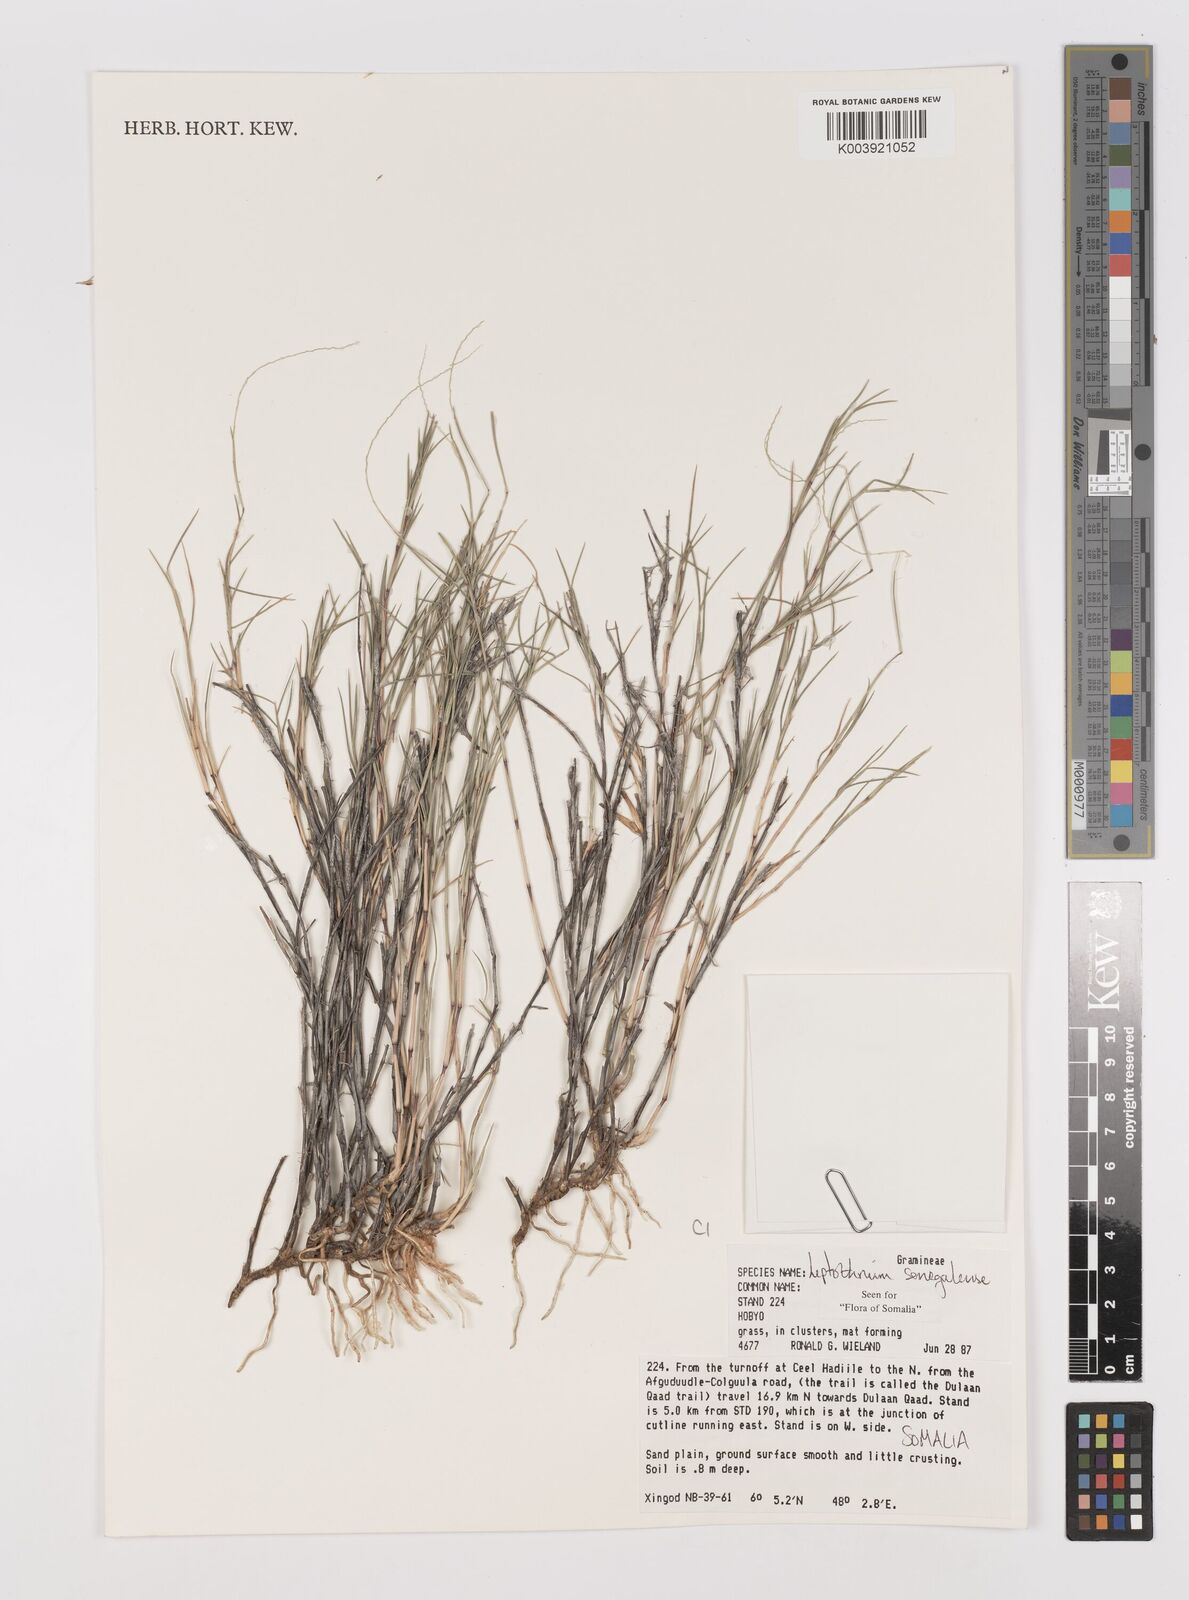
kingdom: Plantae
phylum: Tracheophyta
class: Liliopsida
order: Poales
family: Poaceae
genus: Leptothrium
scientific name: Leptothrium senegalense
